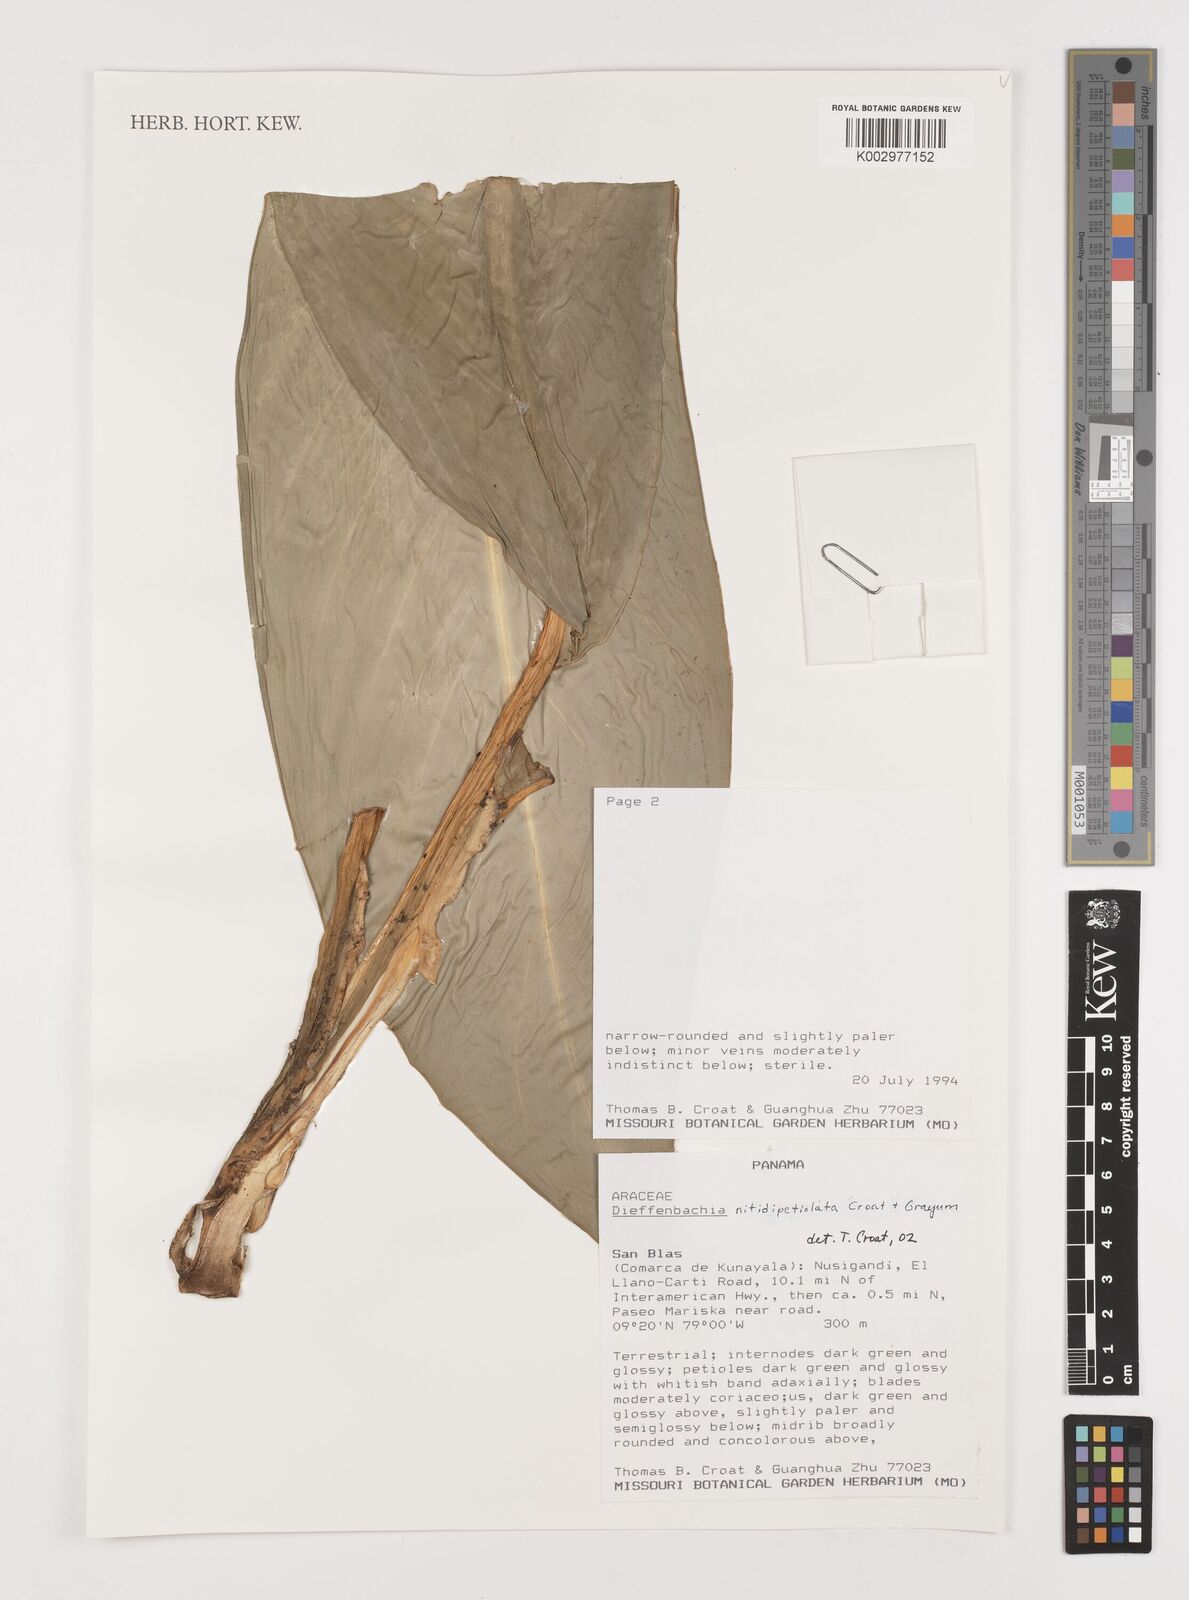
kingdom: Plantae
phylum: Tracheophyta
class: Liliopsida
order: Alismatales
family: Araceae
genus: Dieffenbachia
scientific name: Dieffenbachia nitidipetiolata
